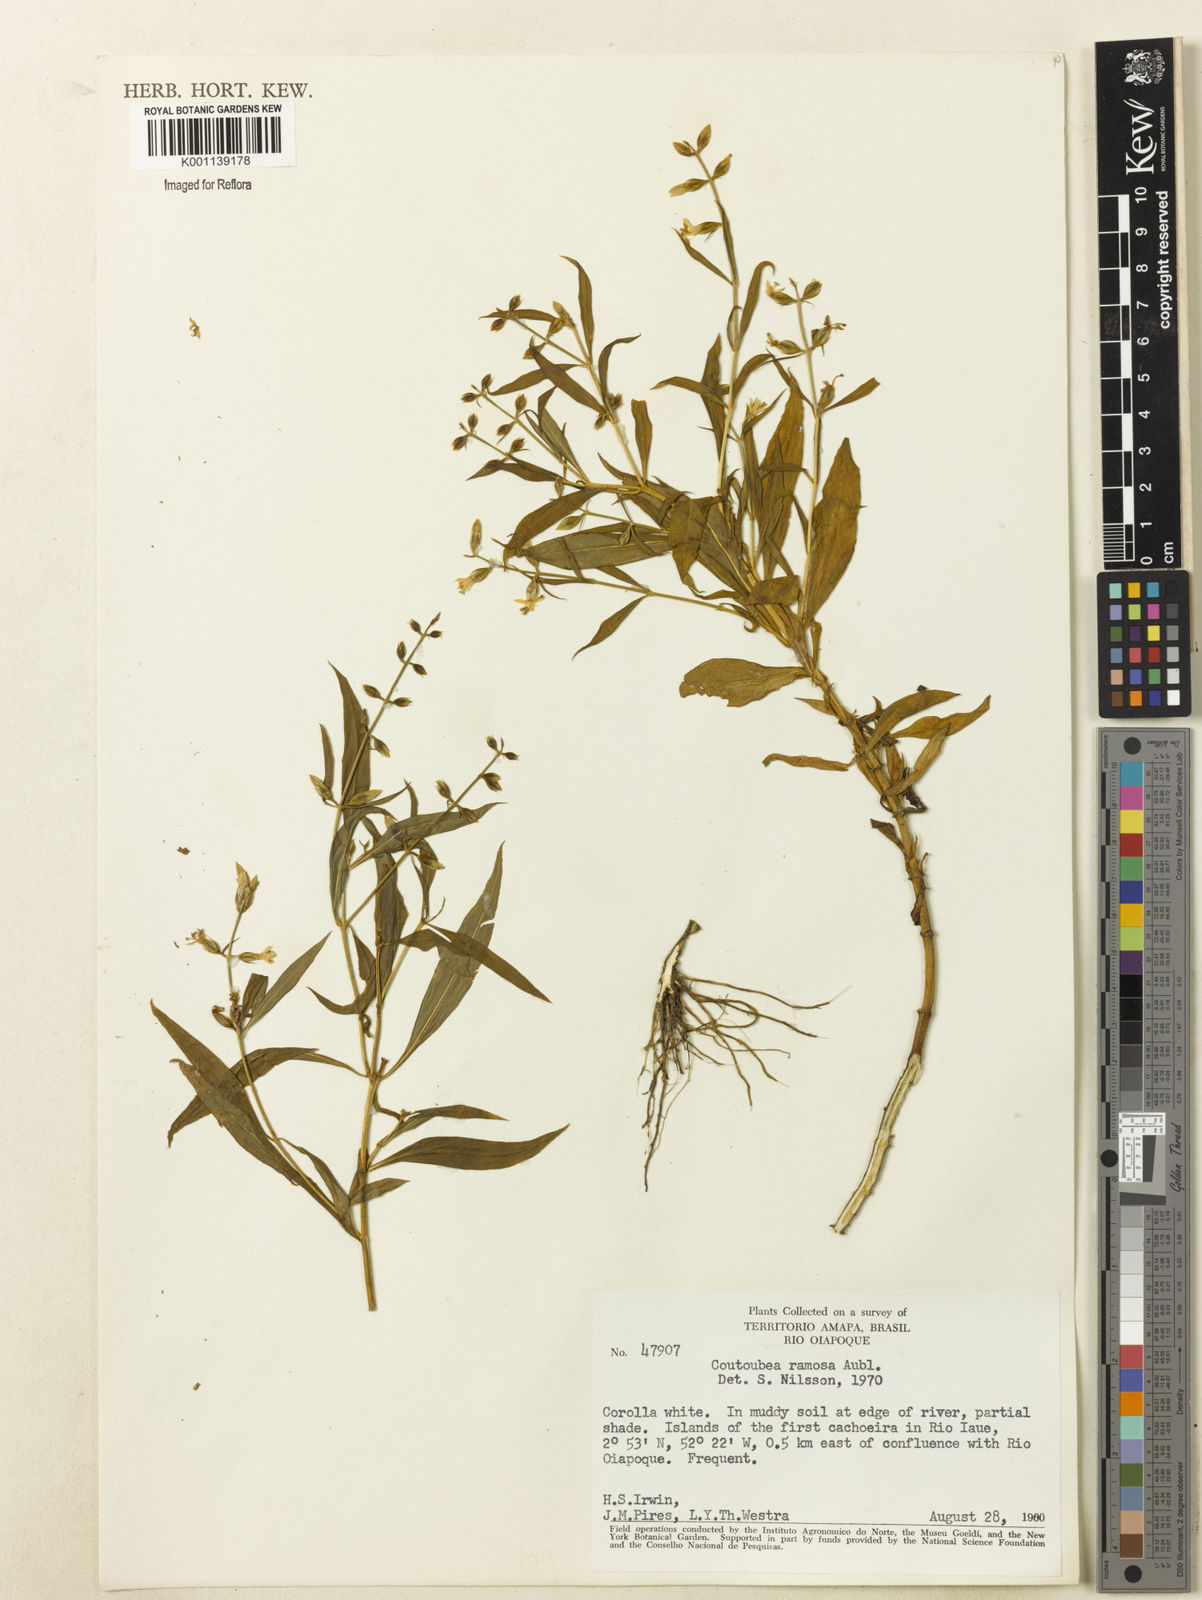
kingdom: Plantae
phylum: Tracheophyta
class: Magnoliopsida
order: Gentianales
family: Gentianaceae
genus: Coutoubea
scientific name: Coutoubea ramosa
